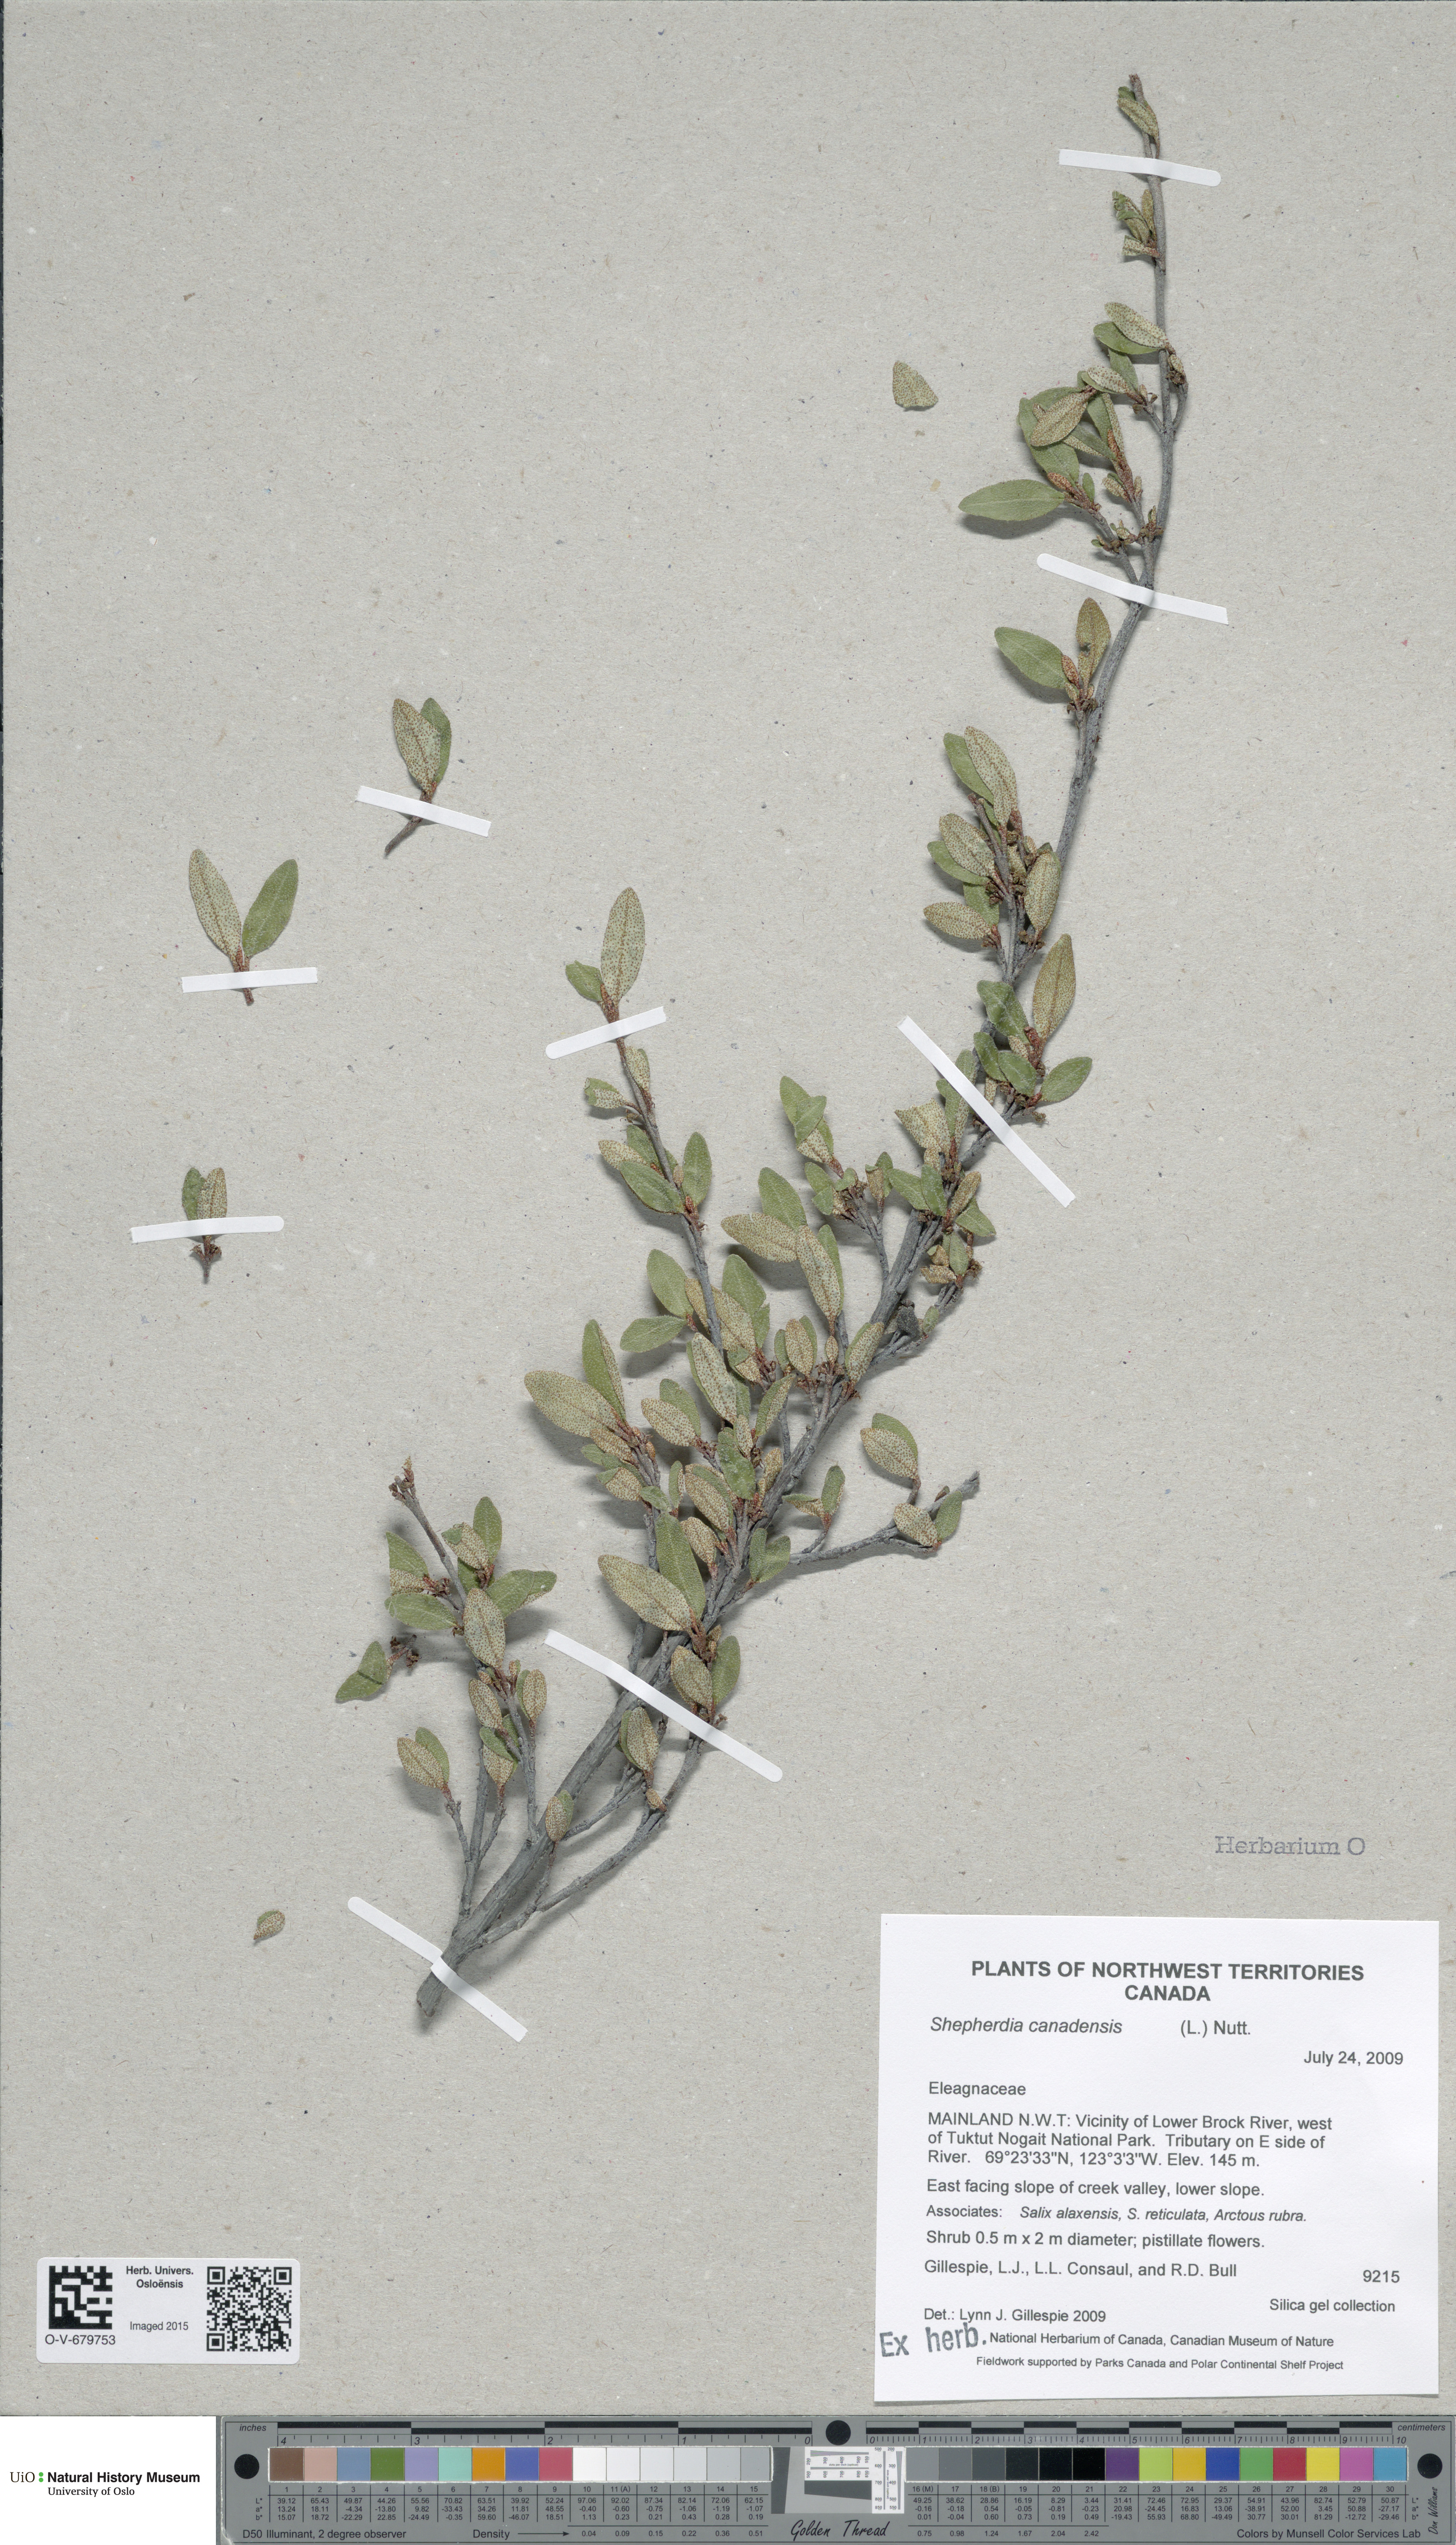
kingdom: Plantae
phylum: Tracheophyta
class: Magnoliopsida
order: Rosales
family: Elaeagnaceae
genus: Shepherdia
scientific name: Shepherdia canadensis
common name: Soapberry
